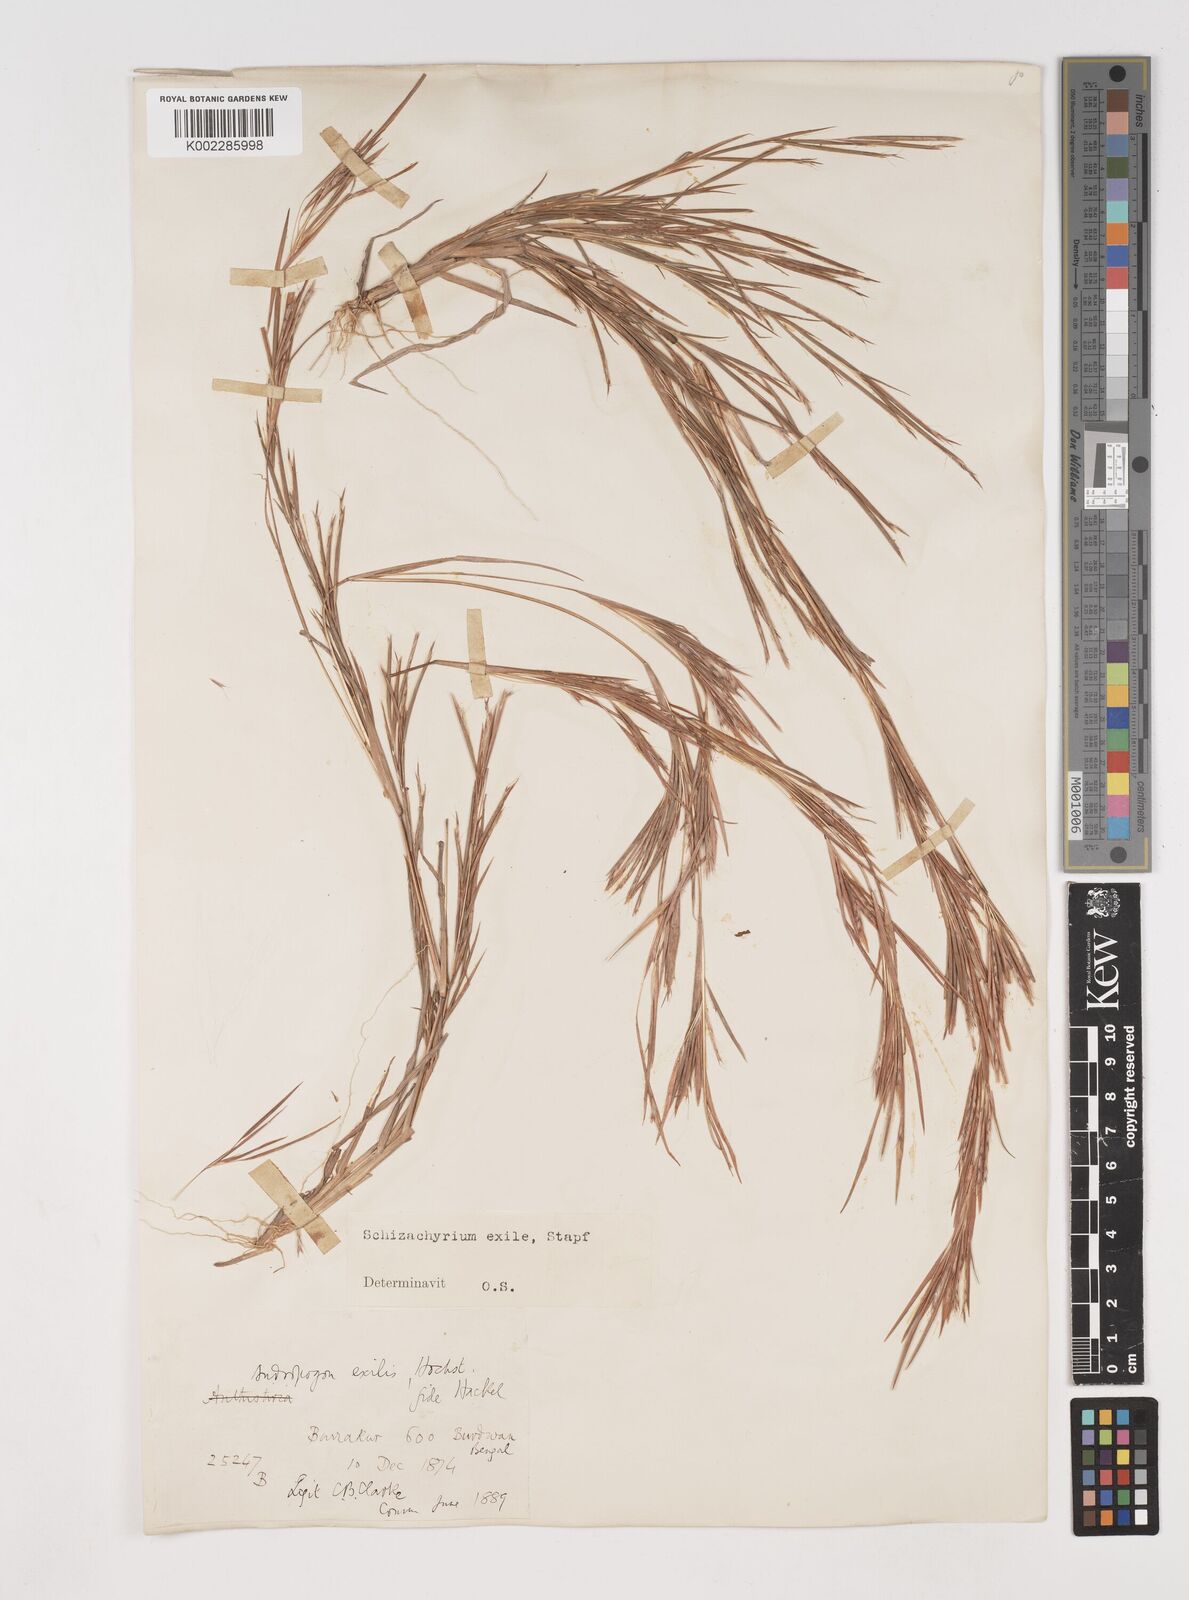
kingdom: Plantae
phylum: Tracheophyta
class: Liliopsida
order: Poales
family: Poaceae
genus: Schizachyrium
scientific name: Schizachyrium exile
